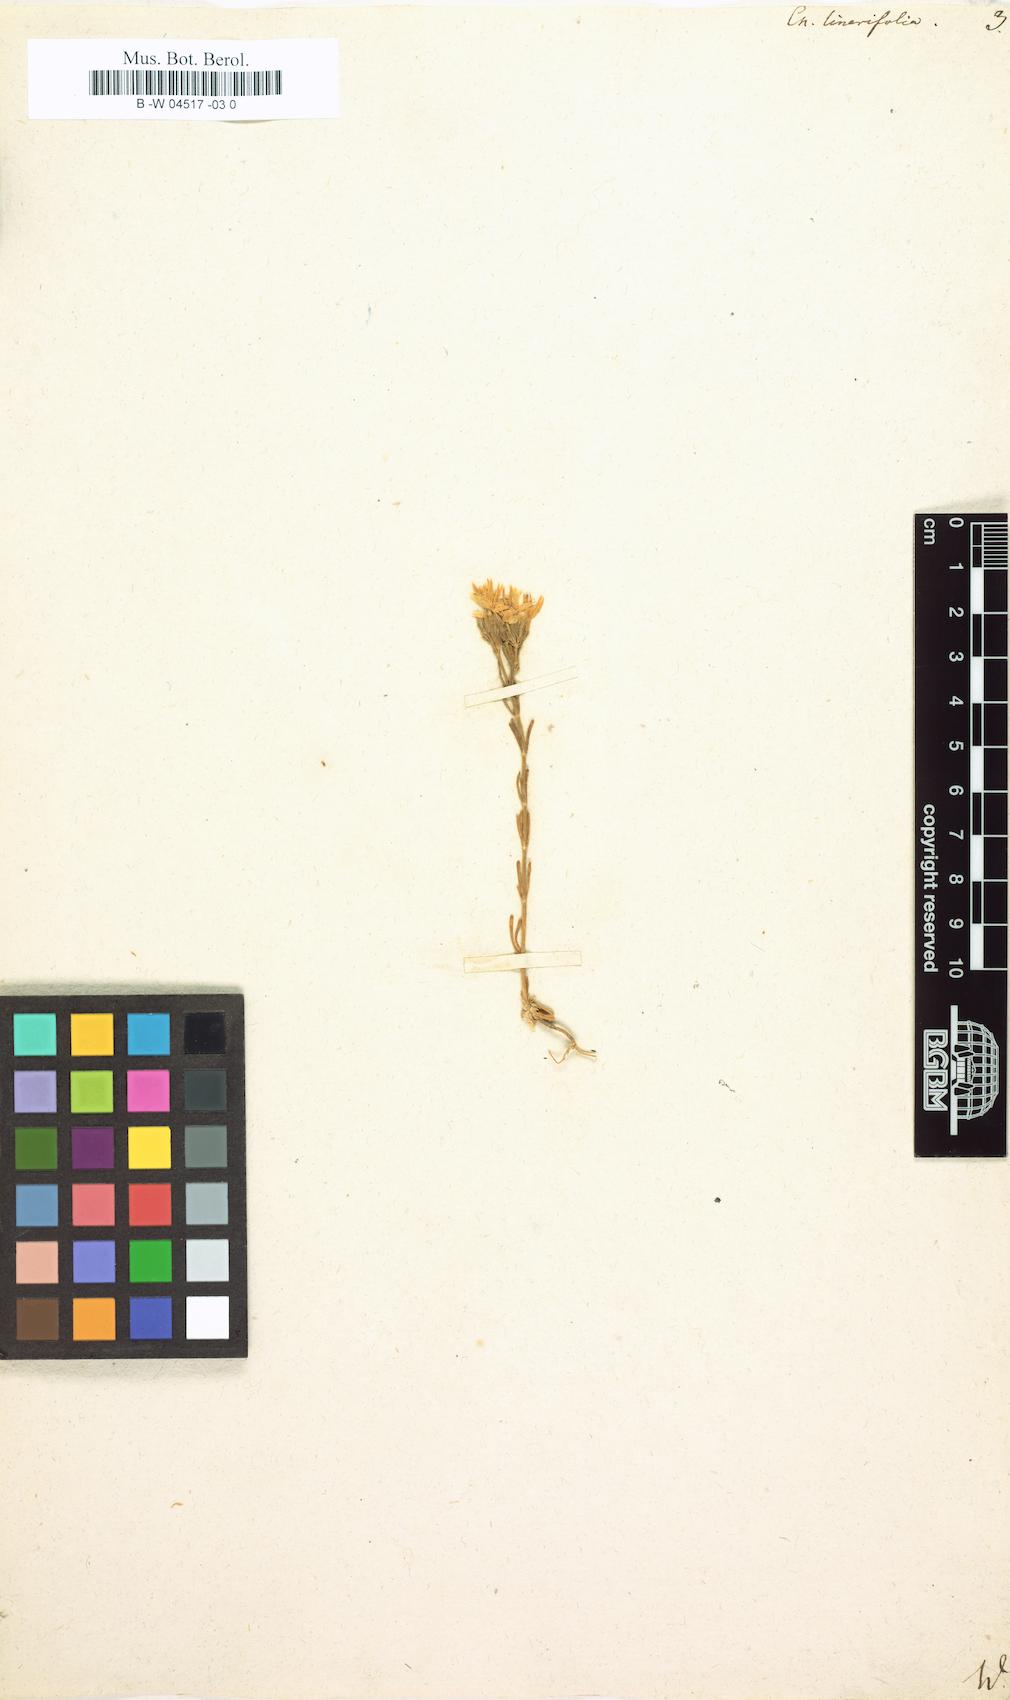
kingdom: Plantae
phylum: Tracheophyta
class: Magnoliopsida
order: Gentianales
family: Gentianaceae
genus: Centaurium
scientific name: Centaurium quadrifolium
